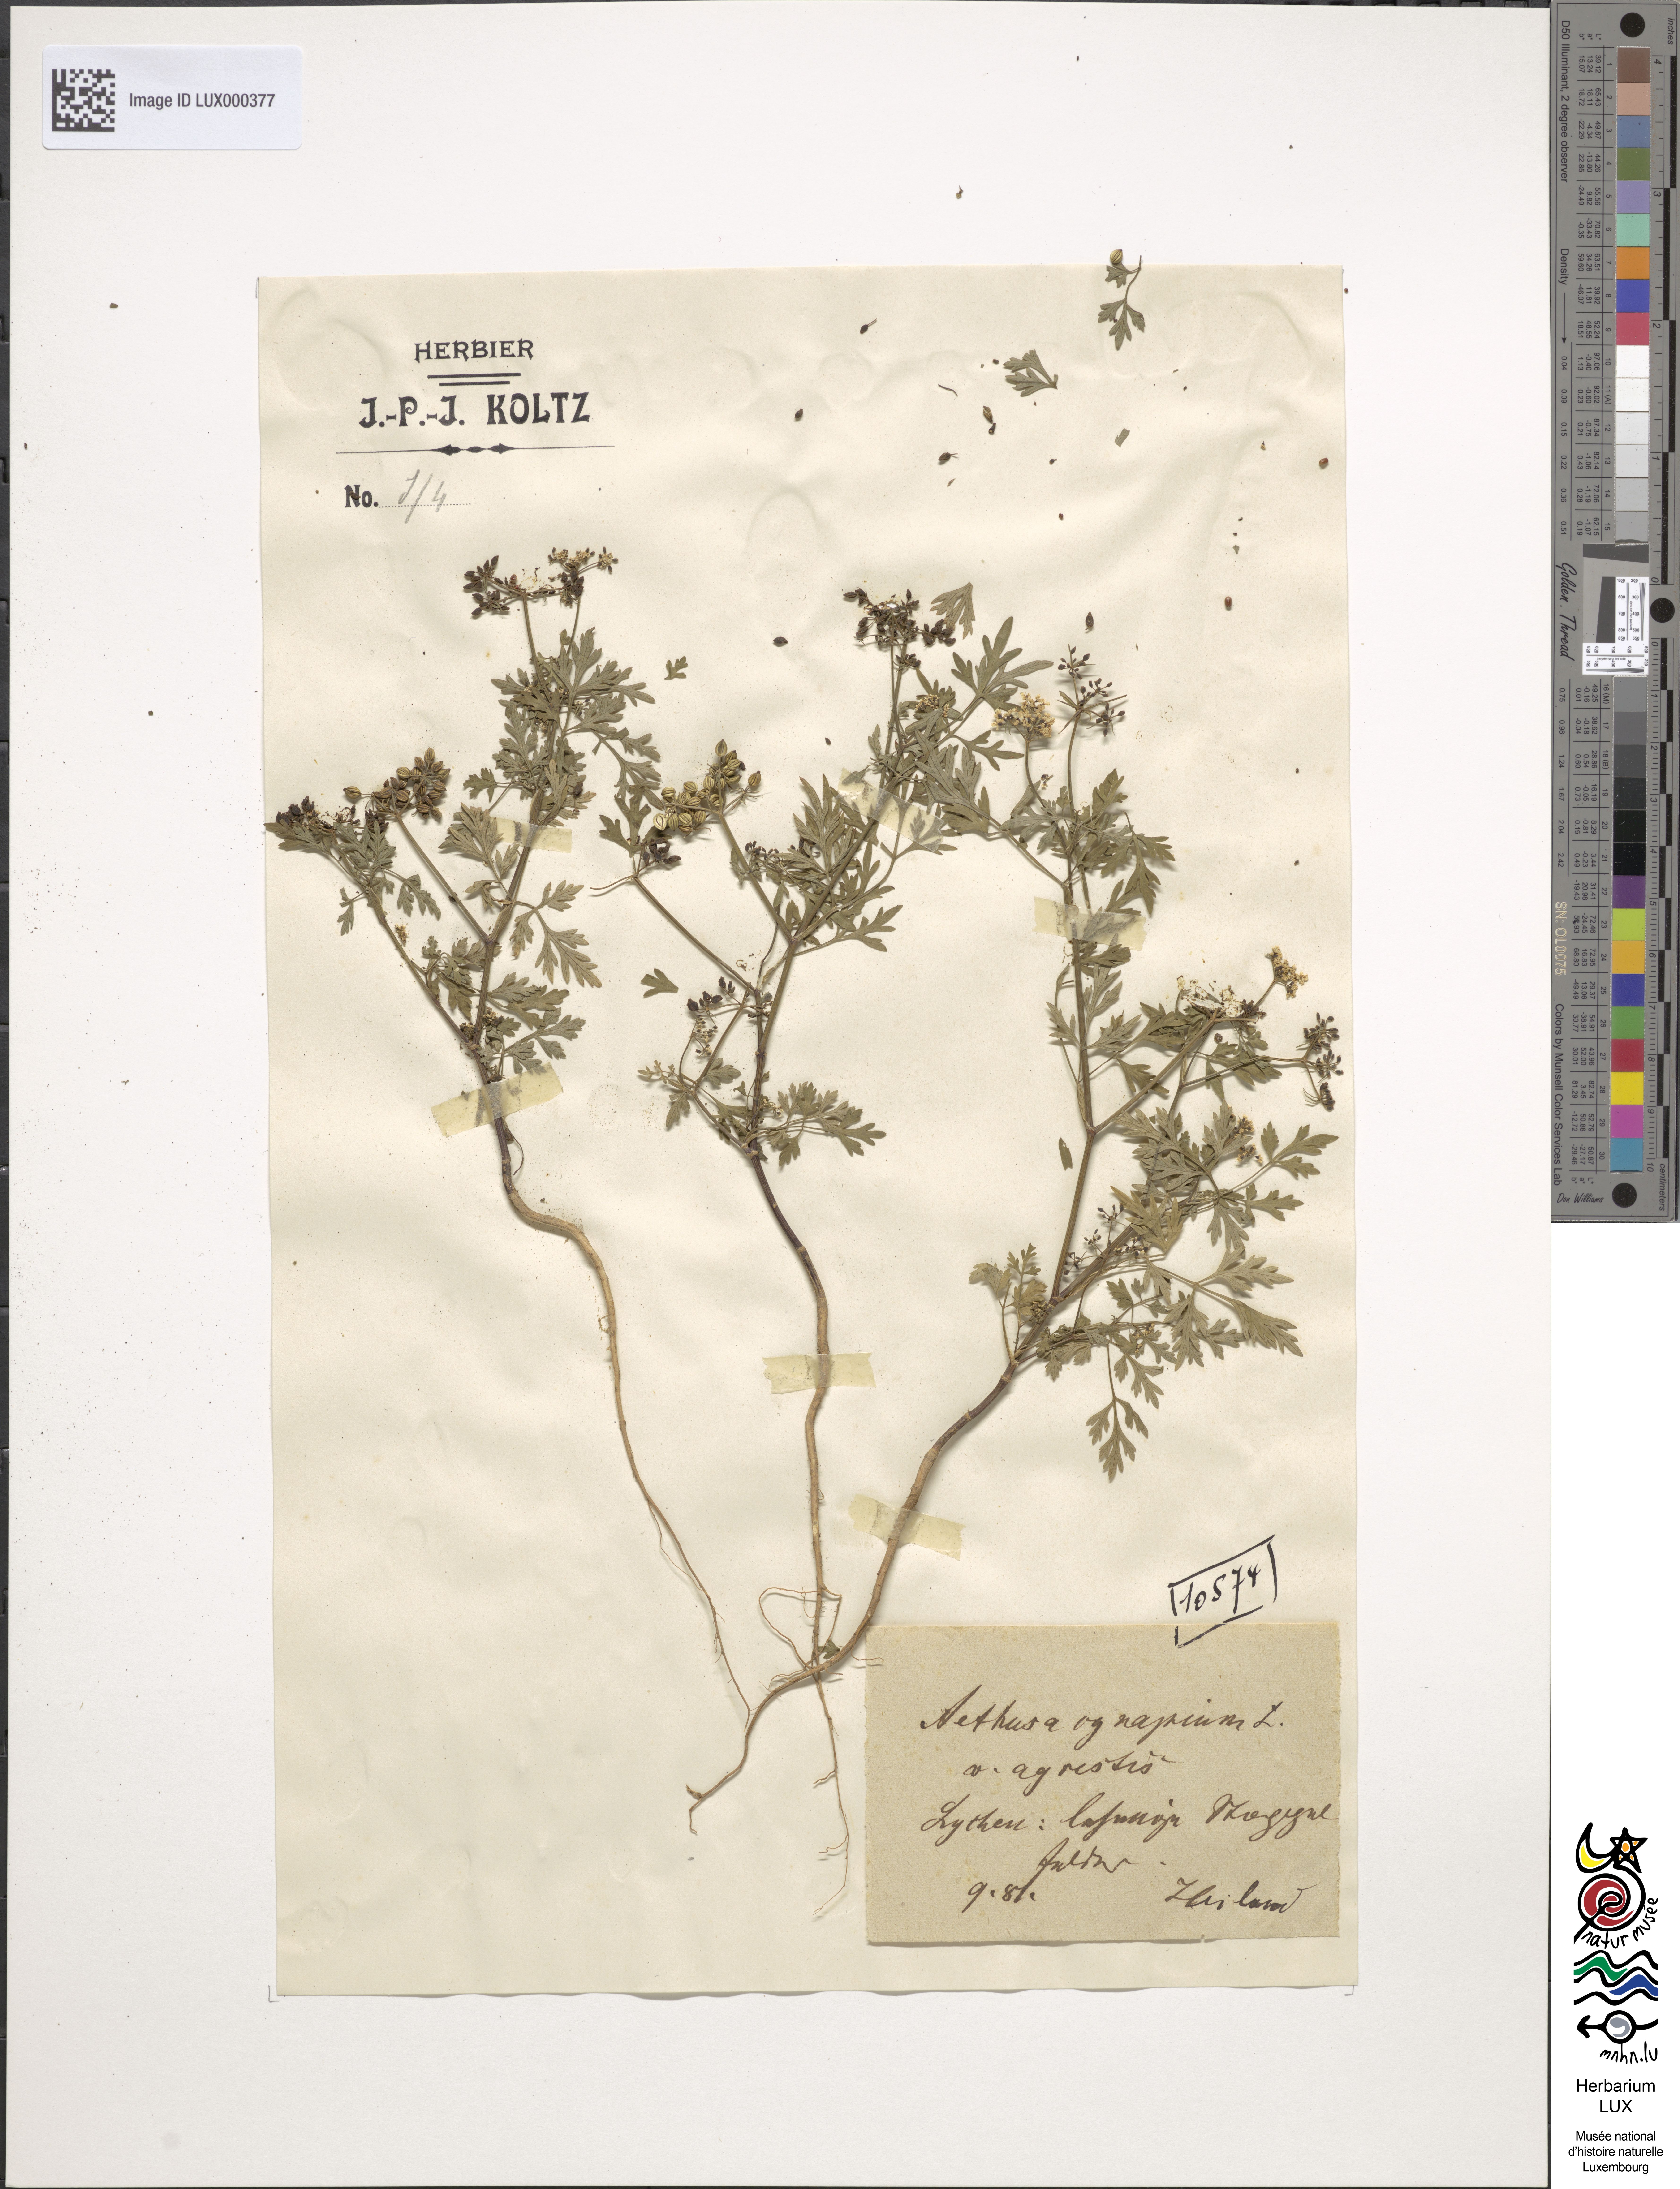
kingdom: Plantae
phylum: Tracheophyta
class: Magnoliopsida
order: Apiales
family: Apiaceae
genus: Aethusa
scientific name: Aethusa cynapium
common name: Fool's parsley
